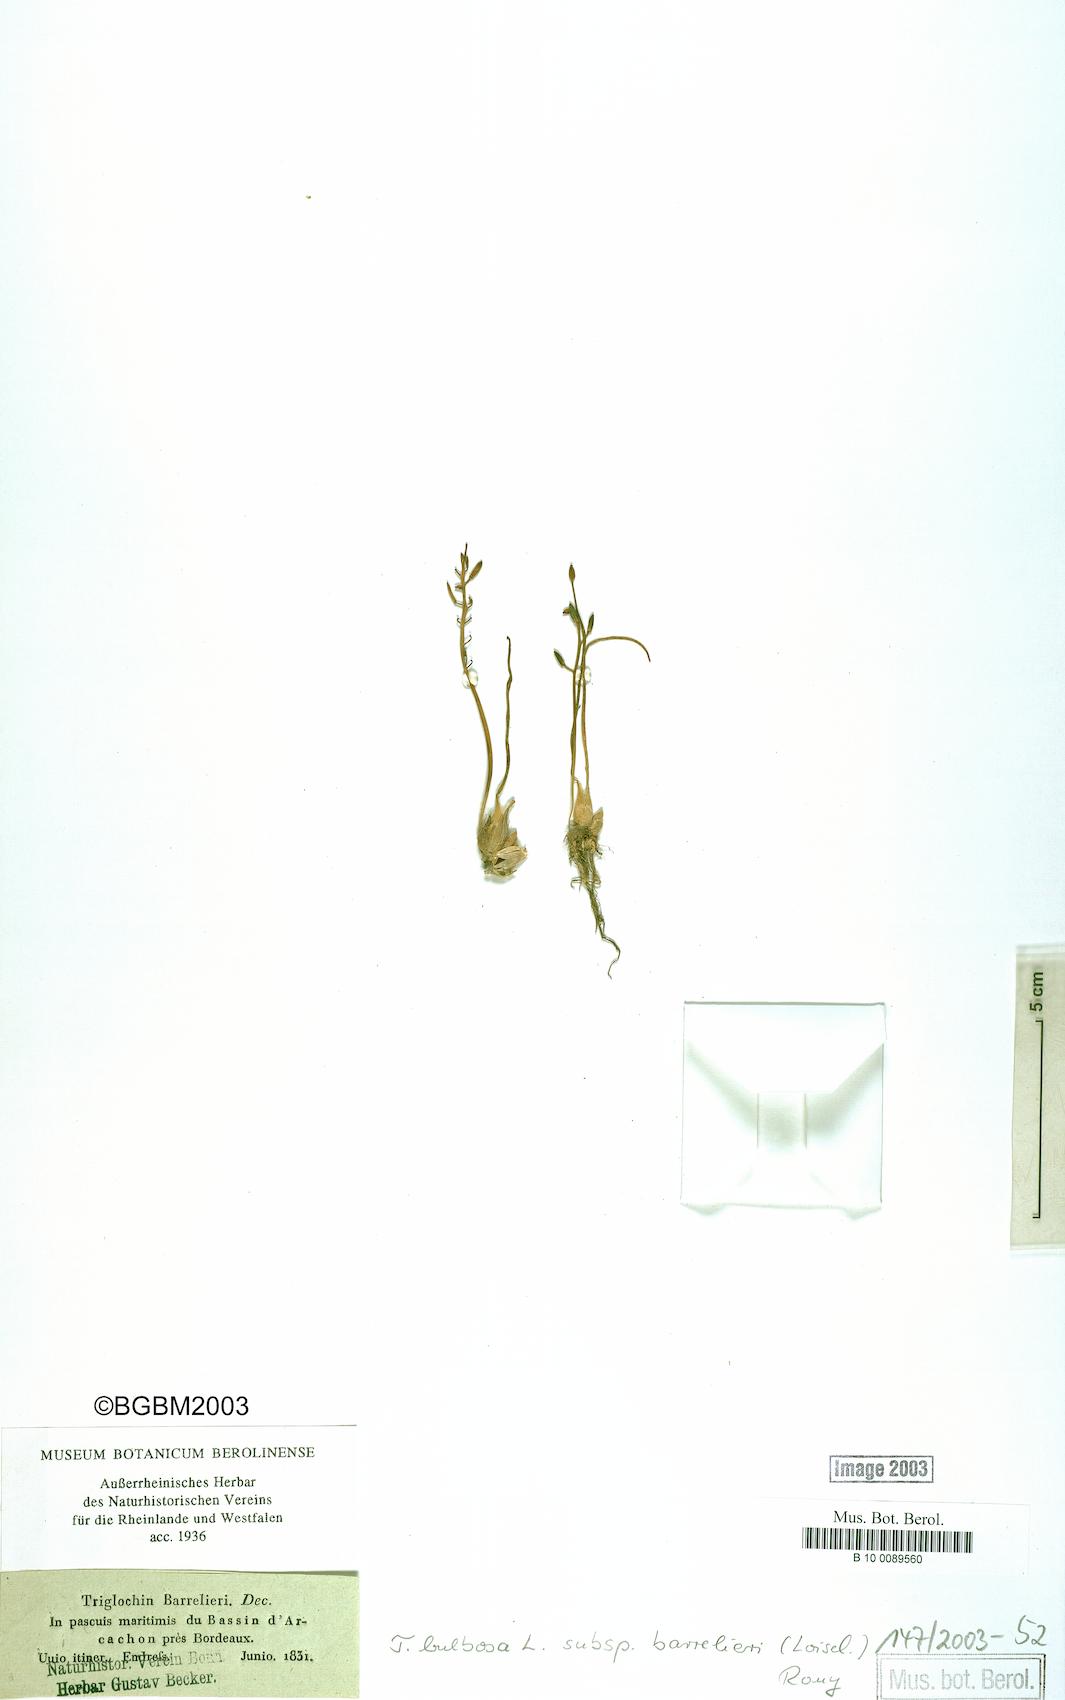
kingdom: Plantae
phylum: Tracheophyta
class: Liliopsida
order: Alismatales
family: Juncaginaceae
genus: Triglochin
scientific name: Triglochin barrelieri
